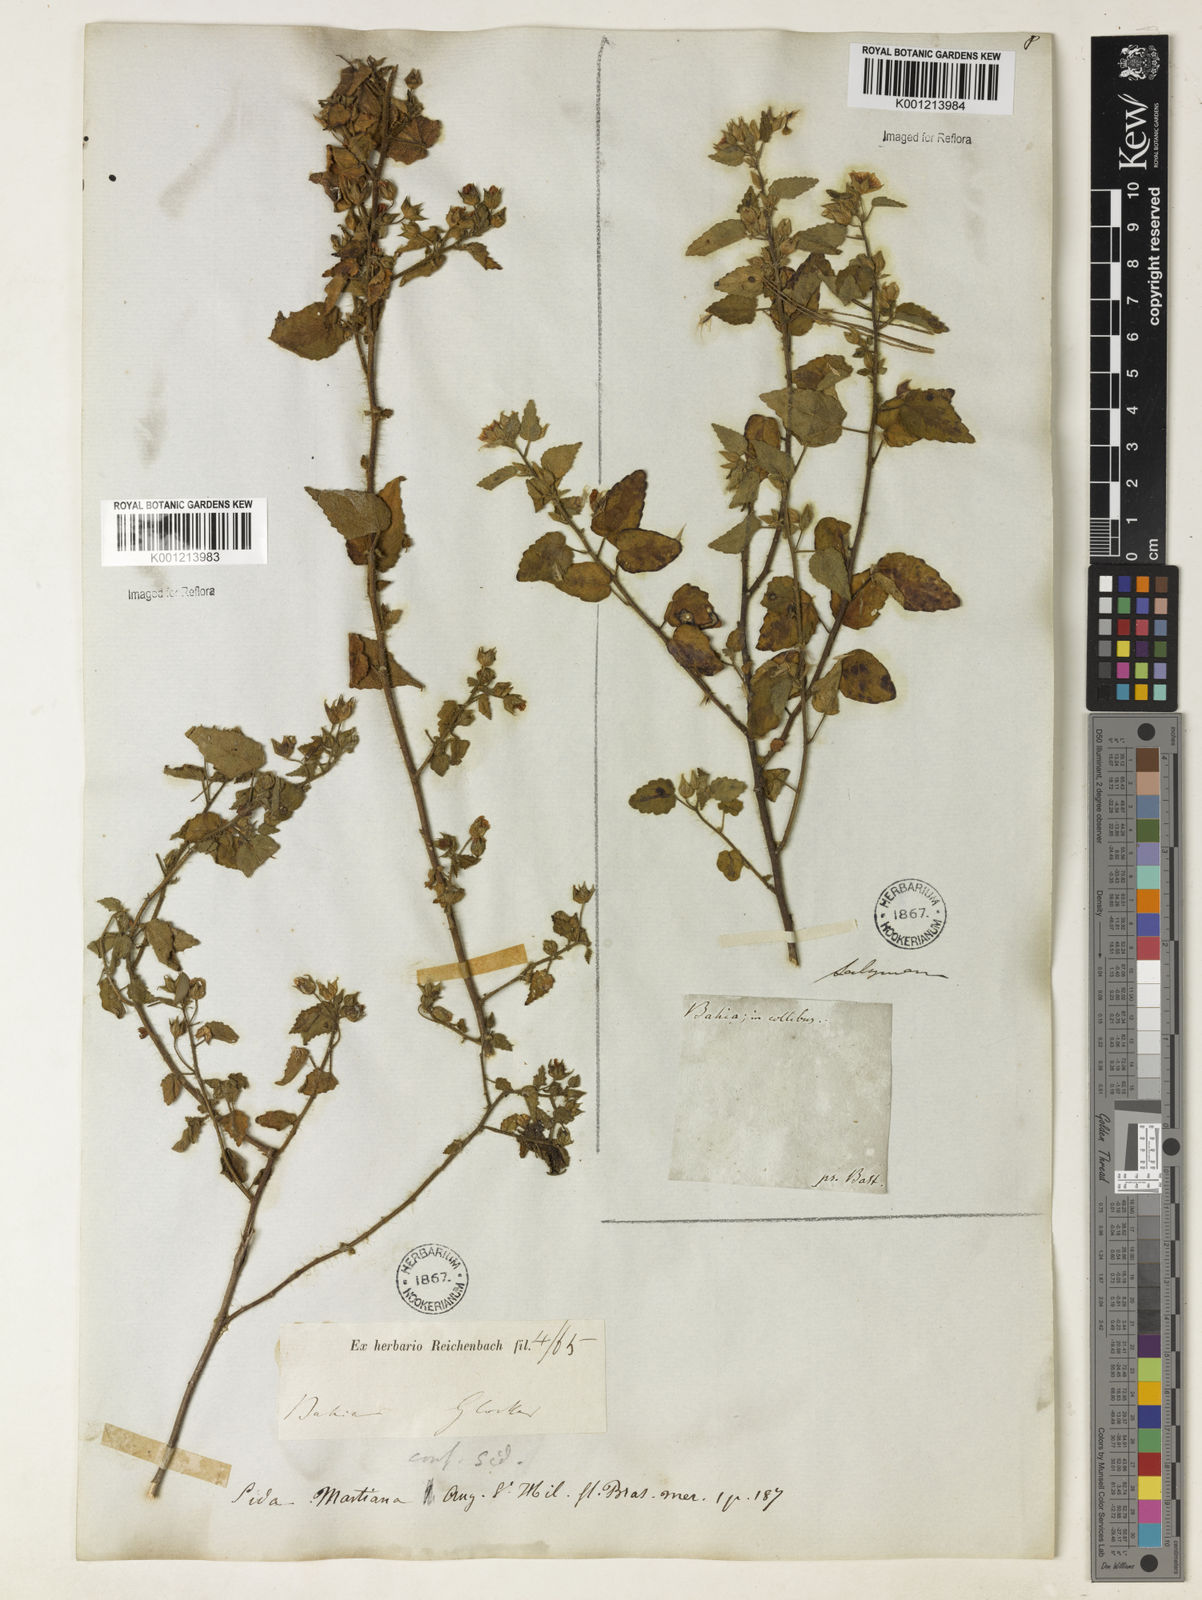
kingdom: Plantae
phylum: Tracheophyta
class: Magnoliopsida
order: Malvales
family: Malvaceae
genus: Sida
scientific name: Sida aurantiaca
